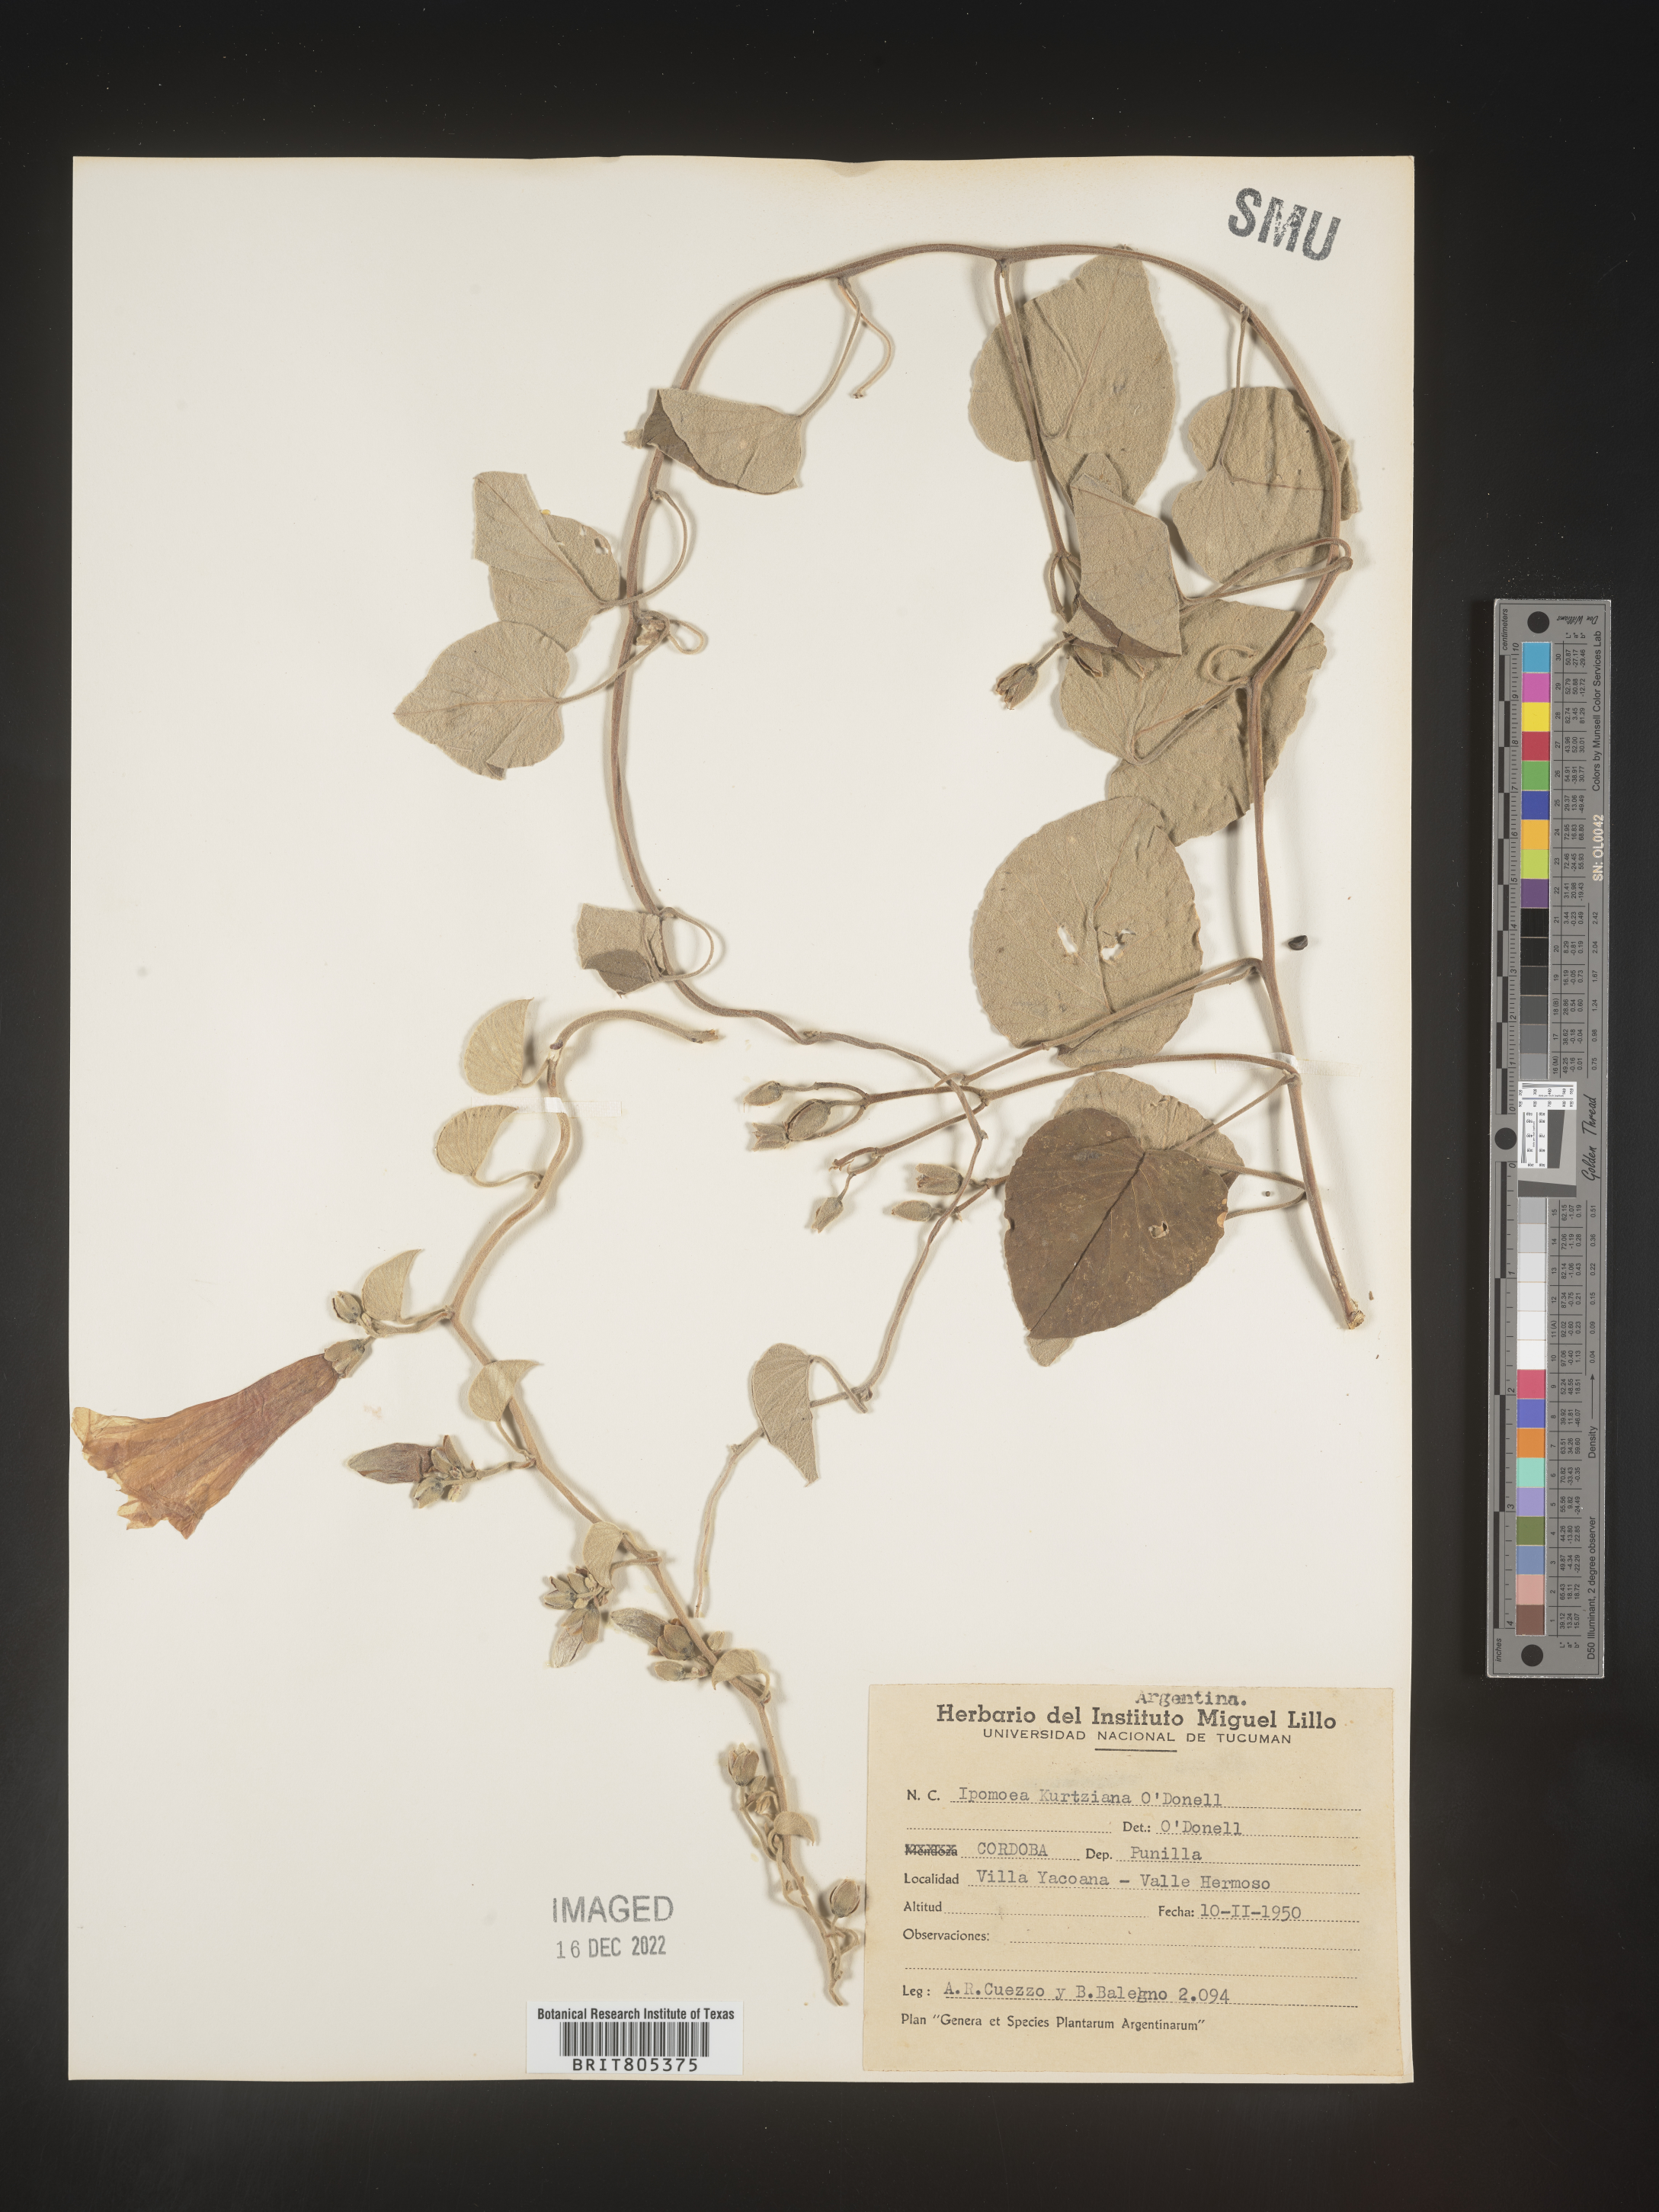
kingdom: Plantae
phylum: Tracheophyta
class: Magnoliopsida
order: Solanales
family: Convolvulaceae
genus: Ipomoea
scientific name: Ipomoea
